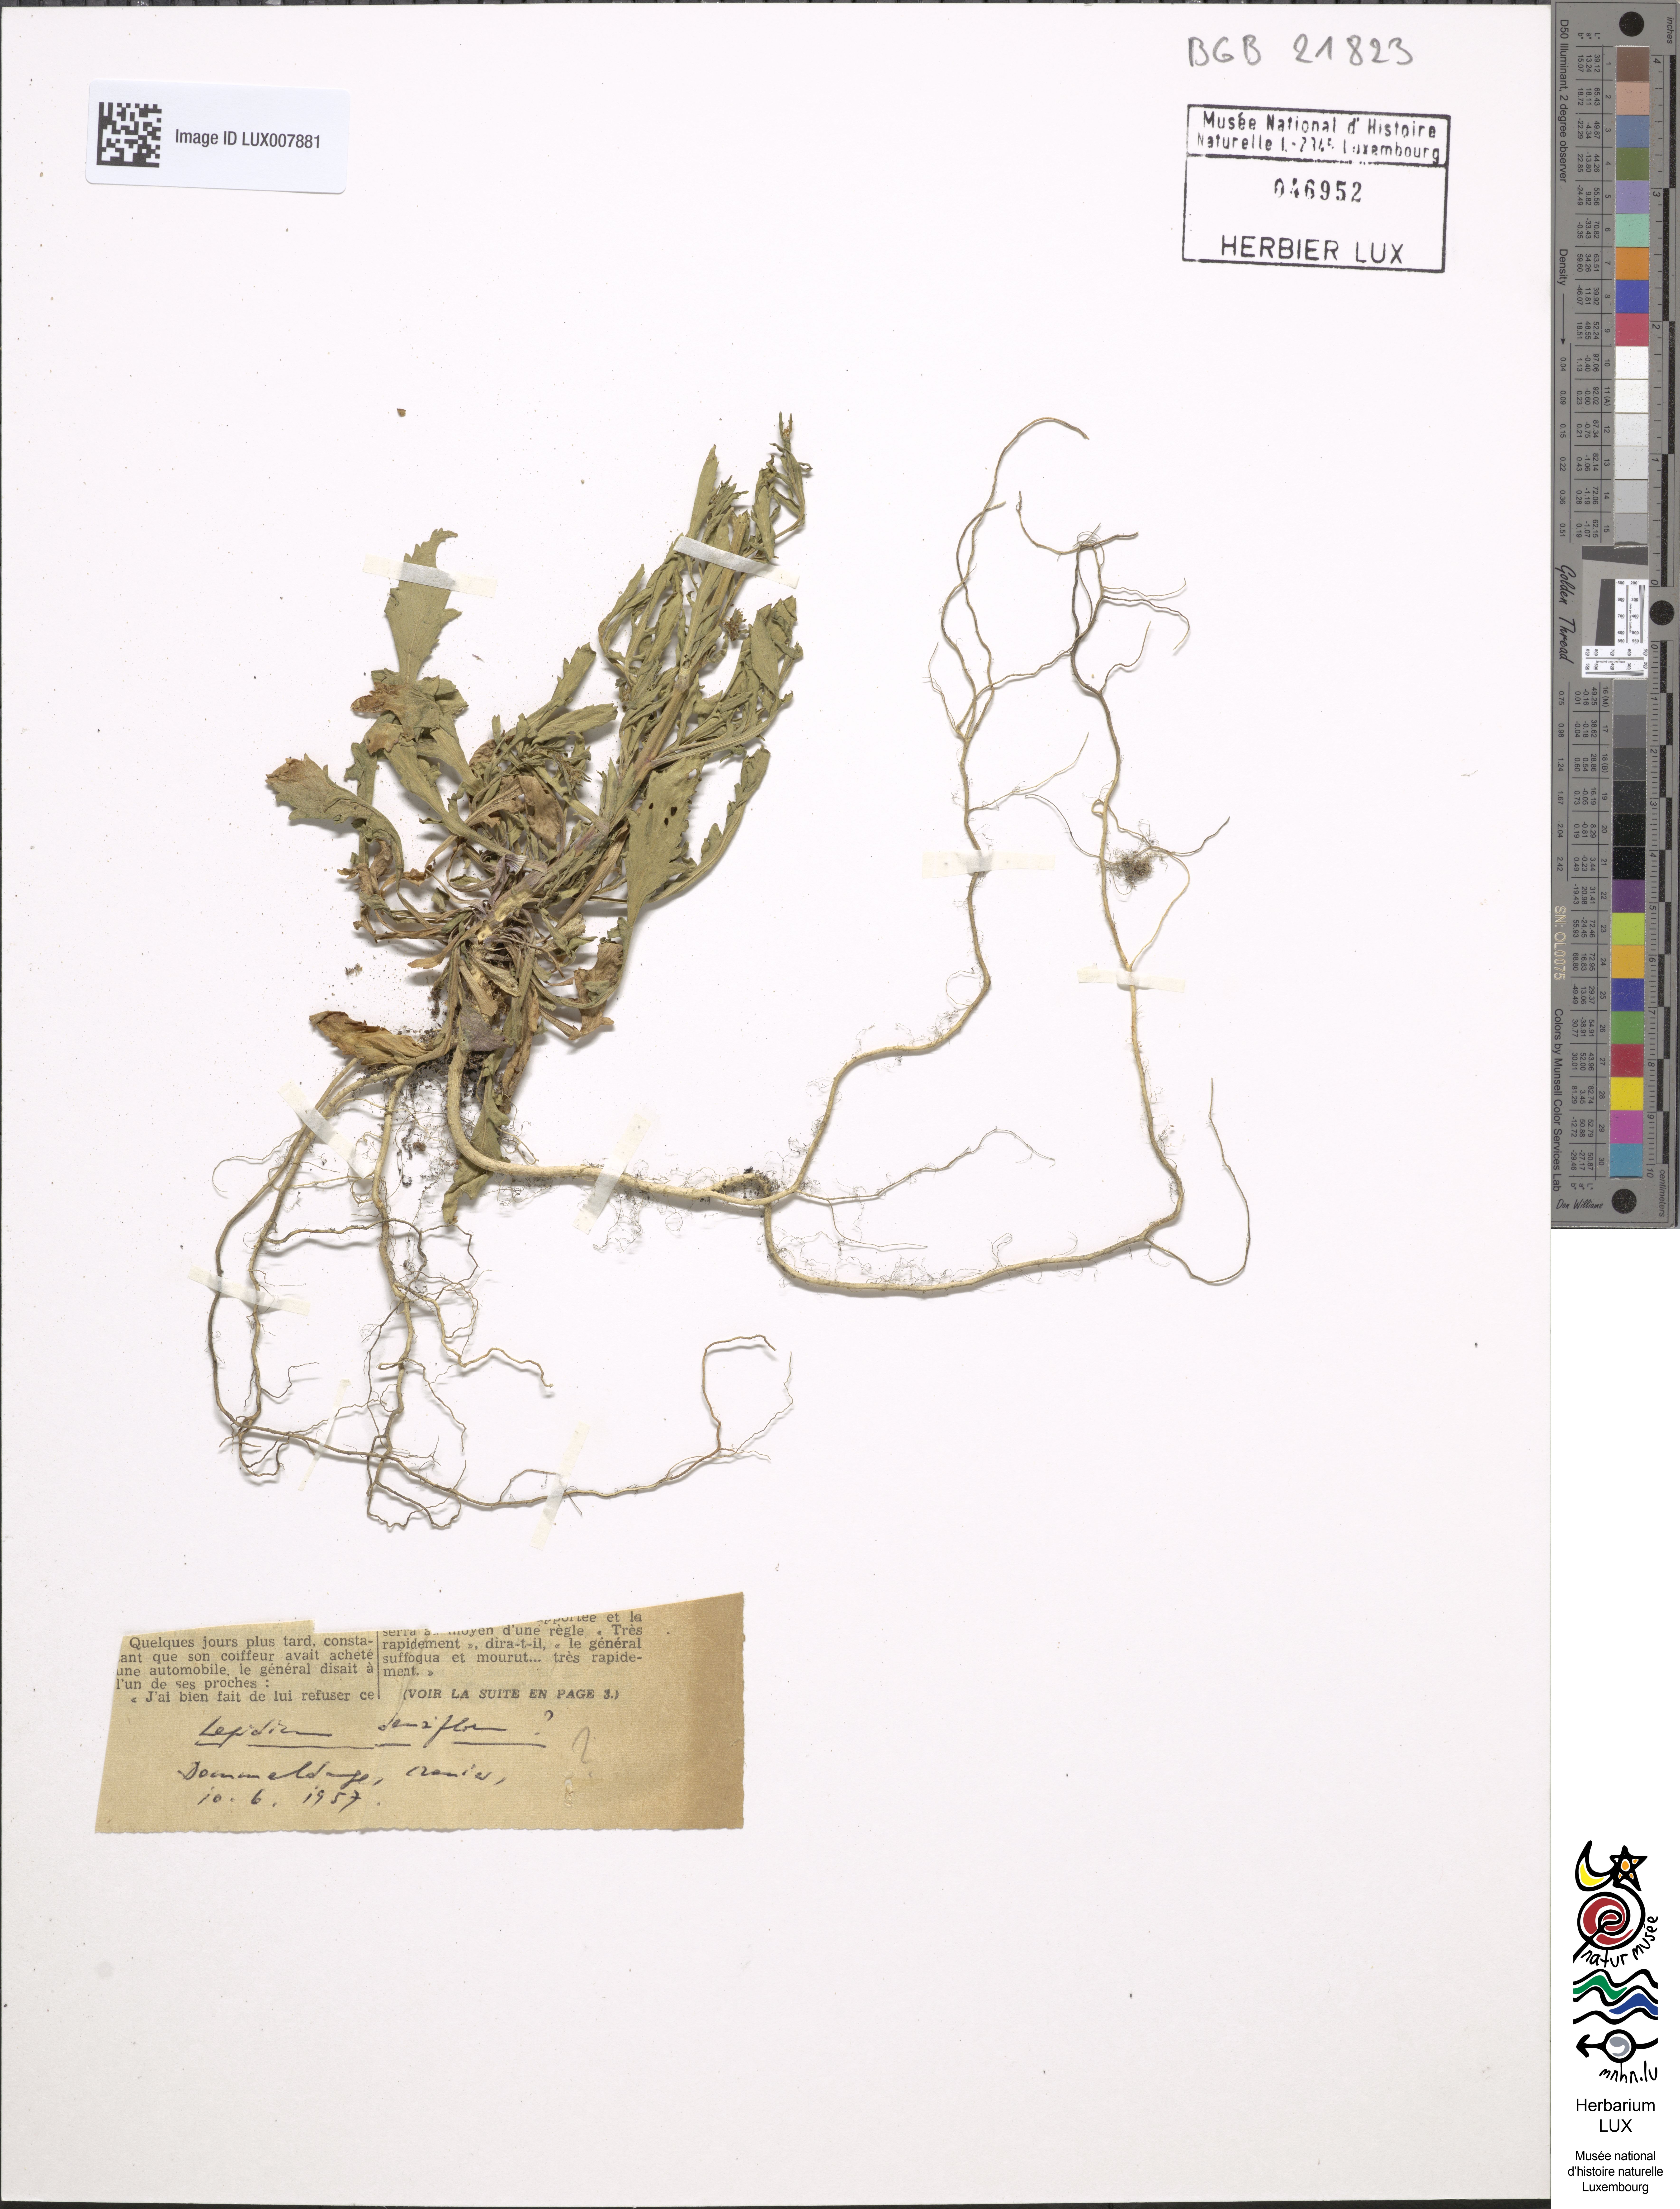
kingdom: Plantae
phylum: Tracheophyta
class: Magnoliopsida
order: Brassicales
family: Brassicaceae
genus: Lepidium
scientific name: Lepidium densiflorum
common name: Miner's pepperwort
